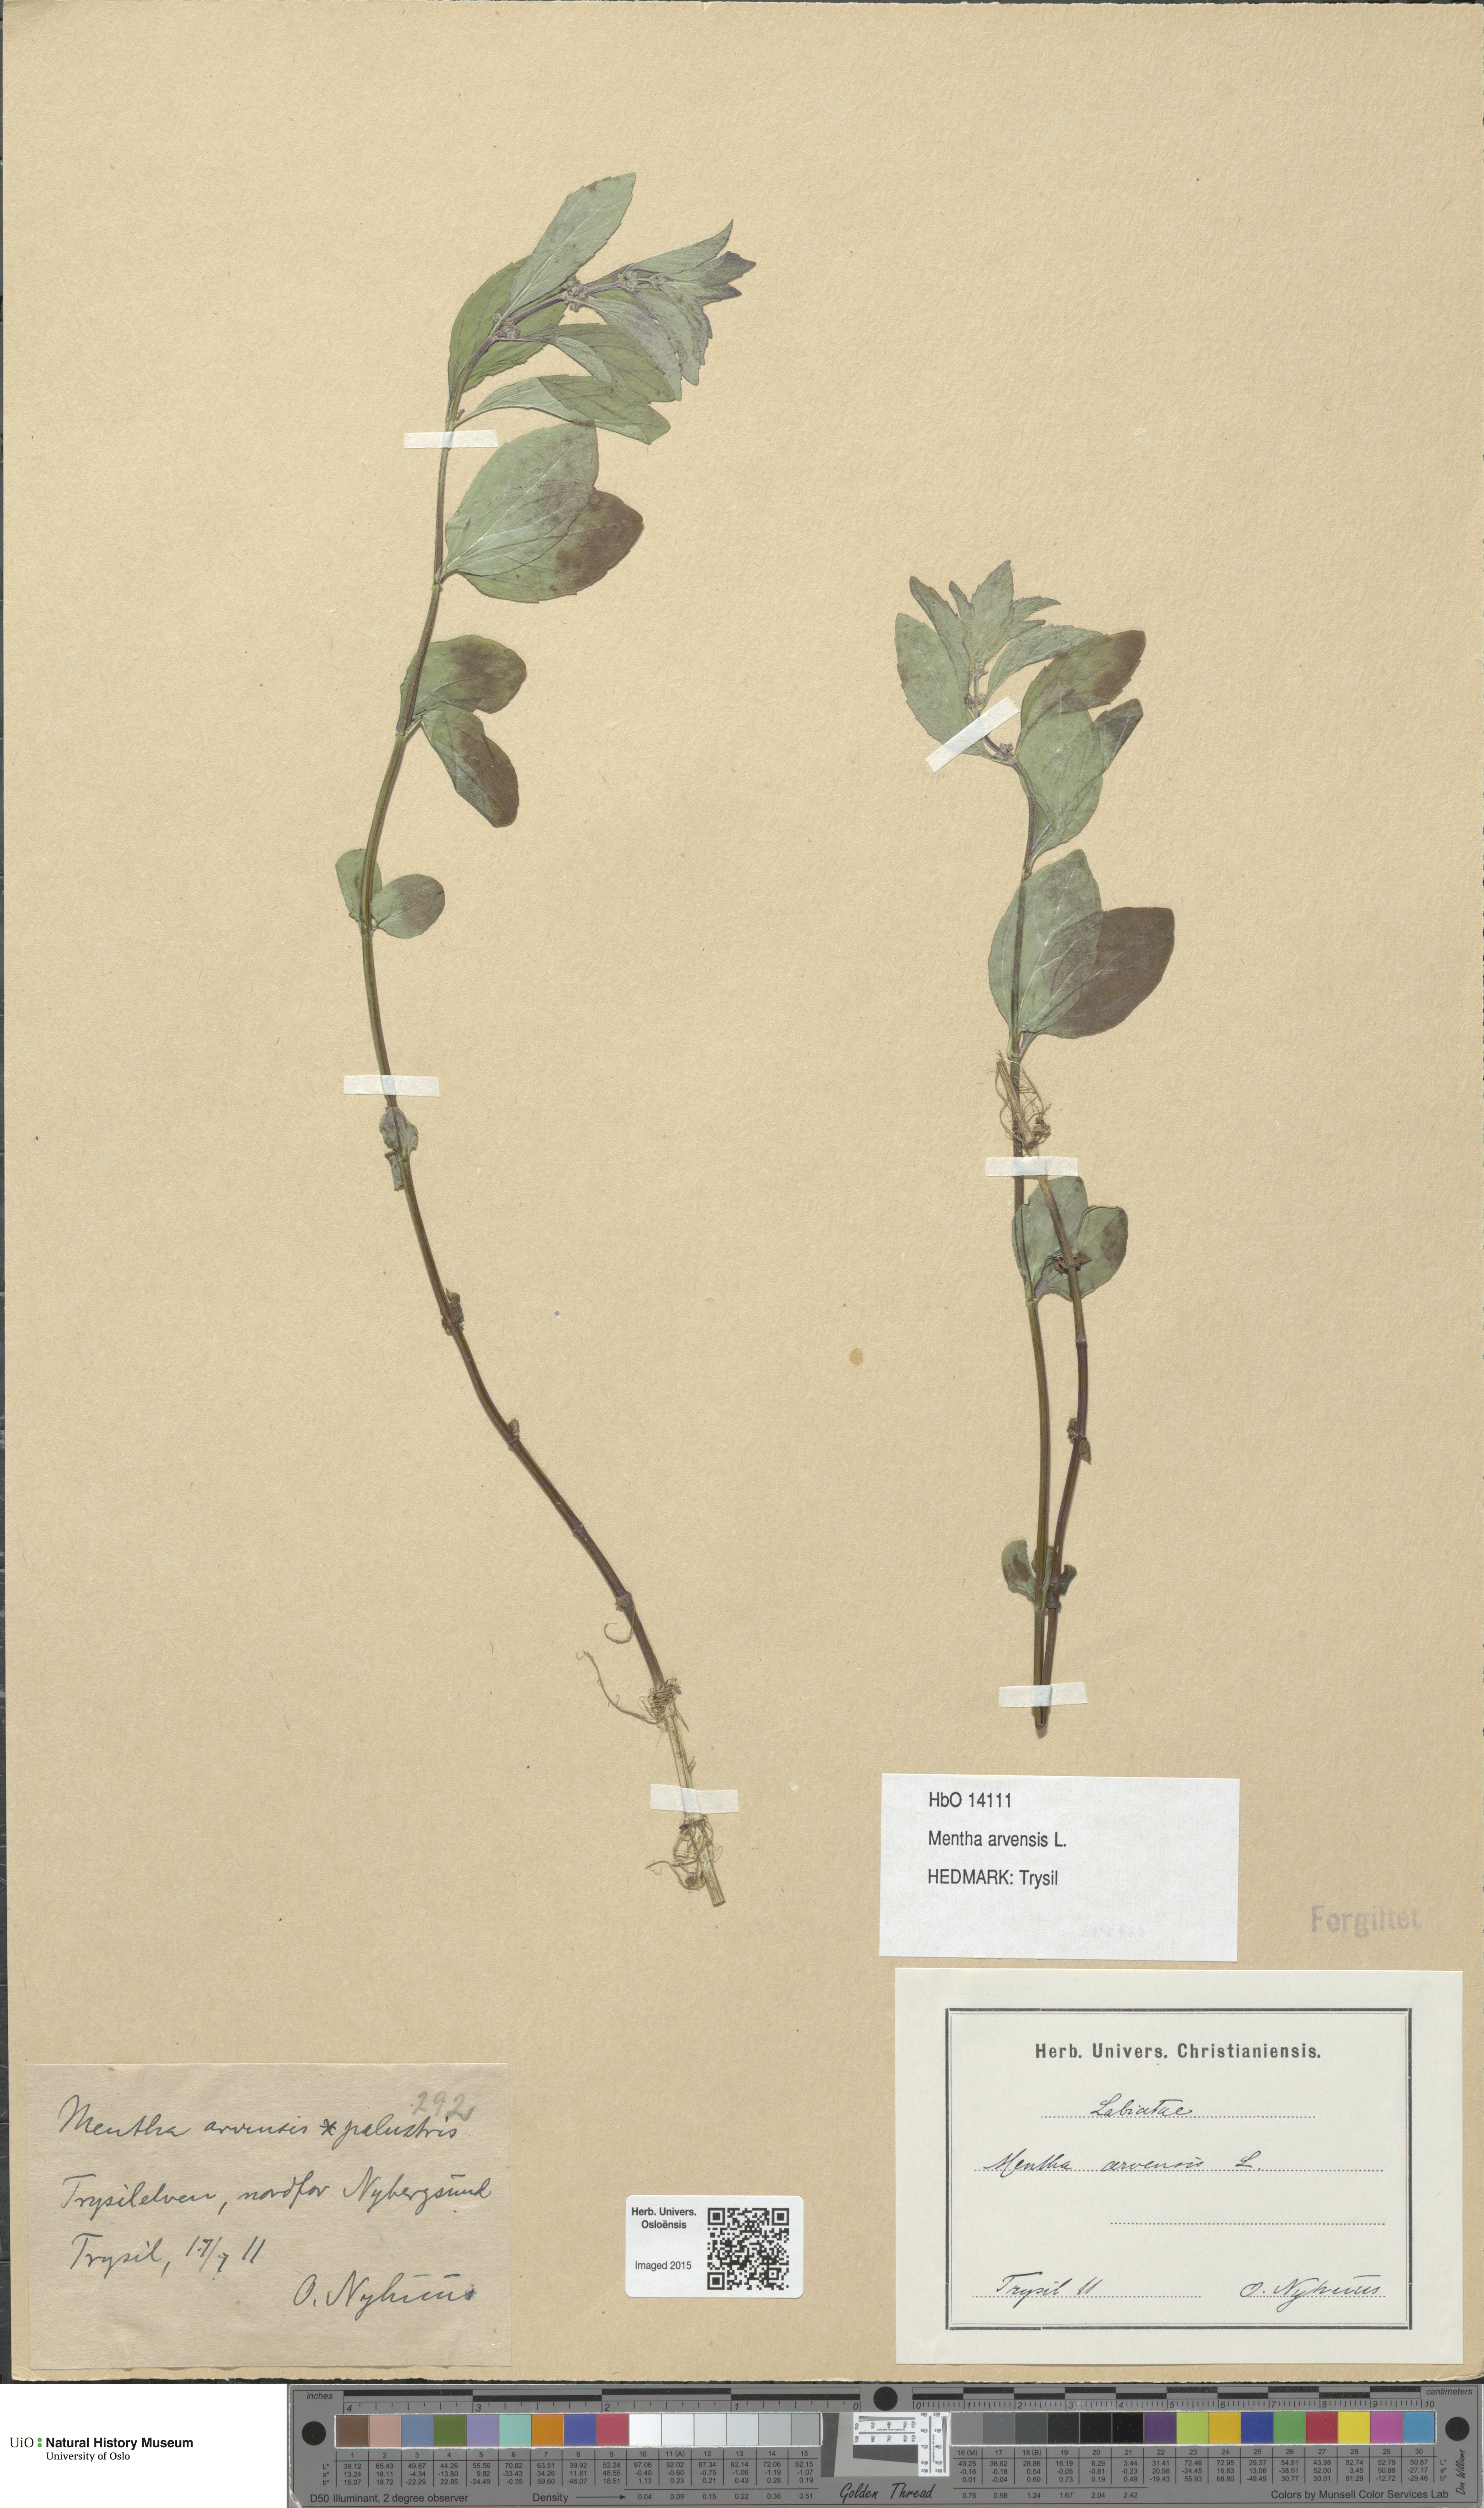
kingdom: Plantae
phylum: Tracheophyta
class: Magnoliopsida
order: Lamiales
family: Lamiaceae
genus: Mentha
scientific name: Mentha arvensis
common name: Corn mint
